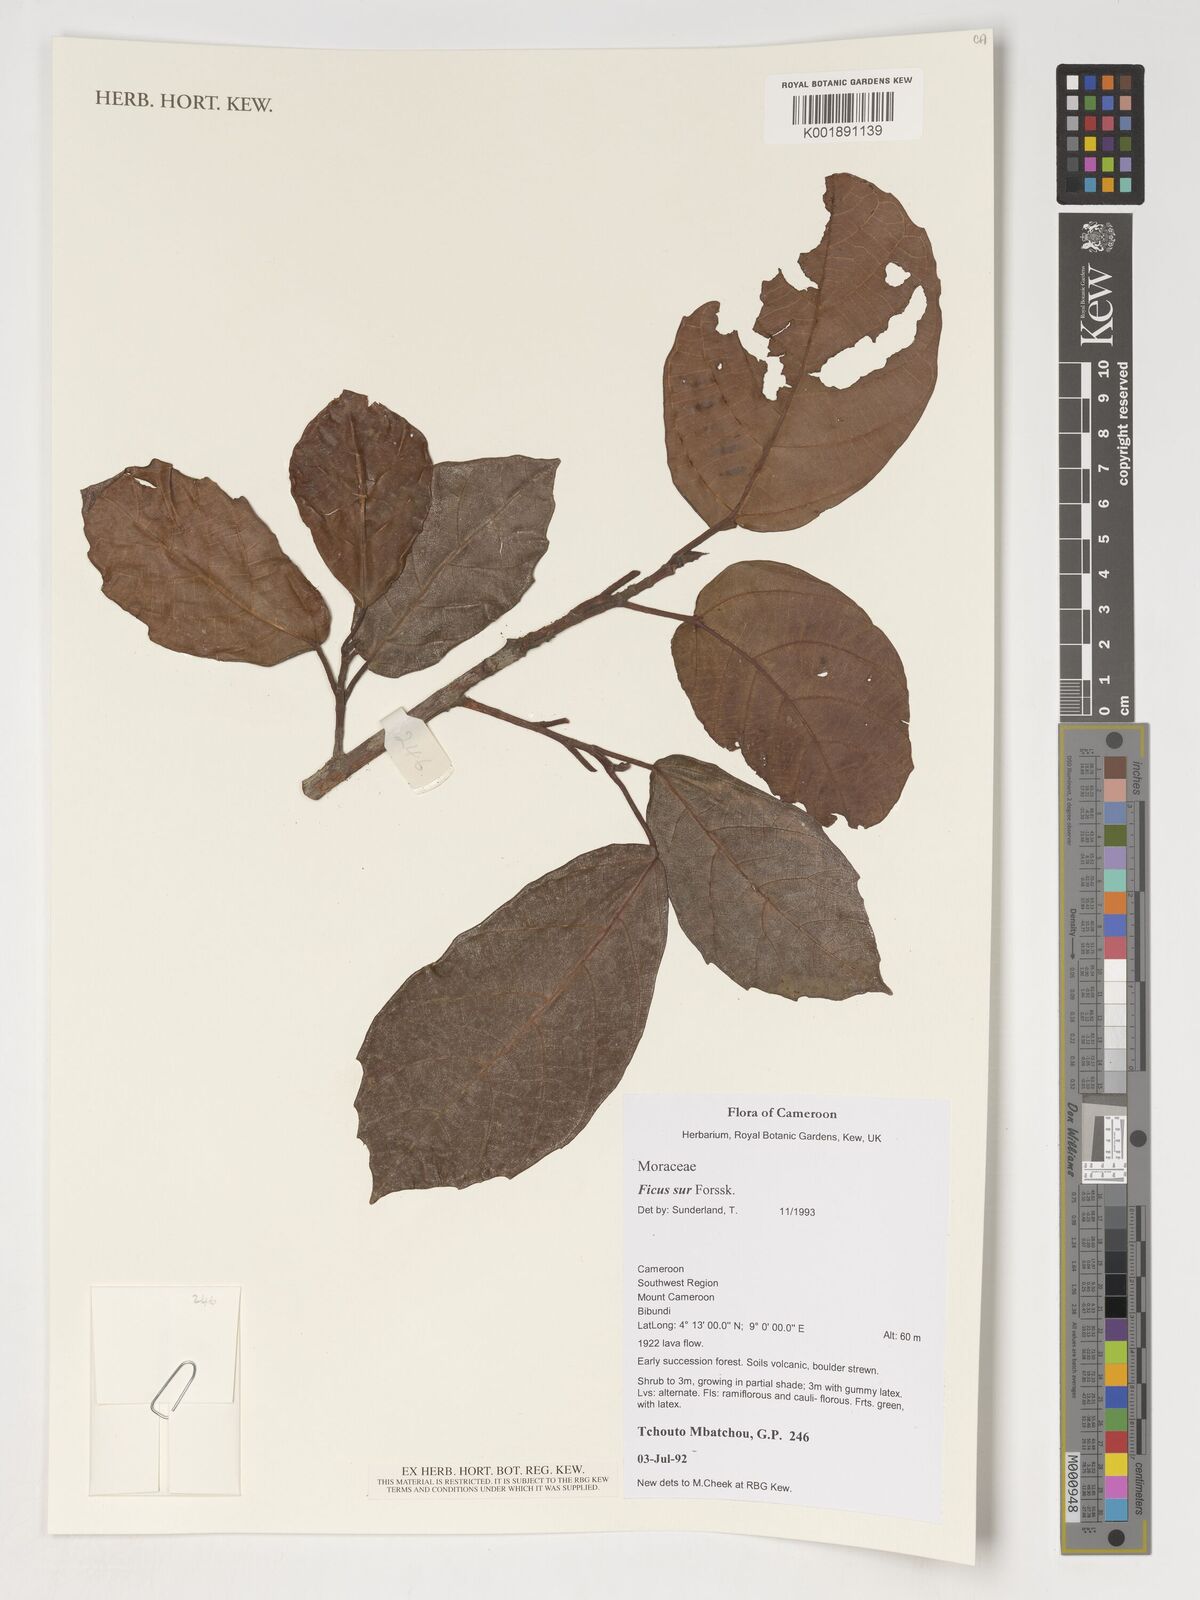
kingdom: Plantae
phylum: Tracheophyta
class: Magnoliopsida
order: Rosales
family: Moraceae
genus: Ficus
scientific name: Ficus sur
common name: Cape fig
